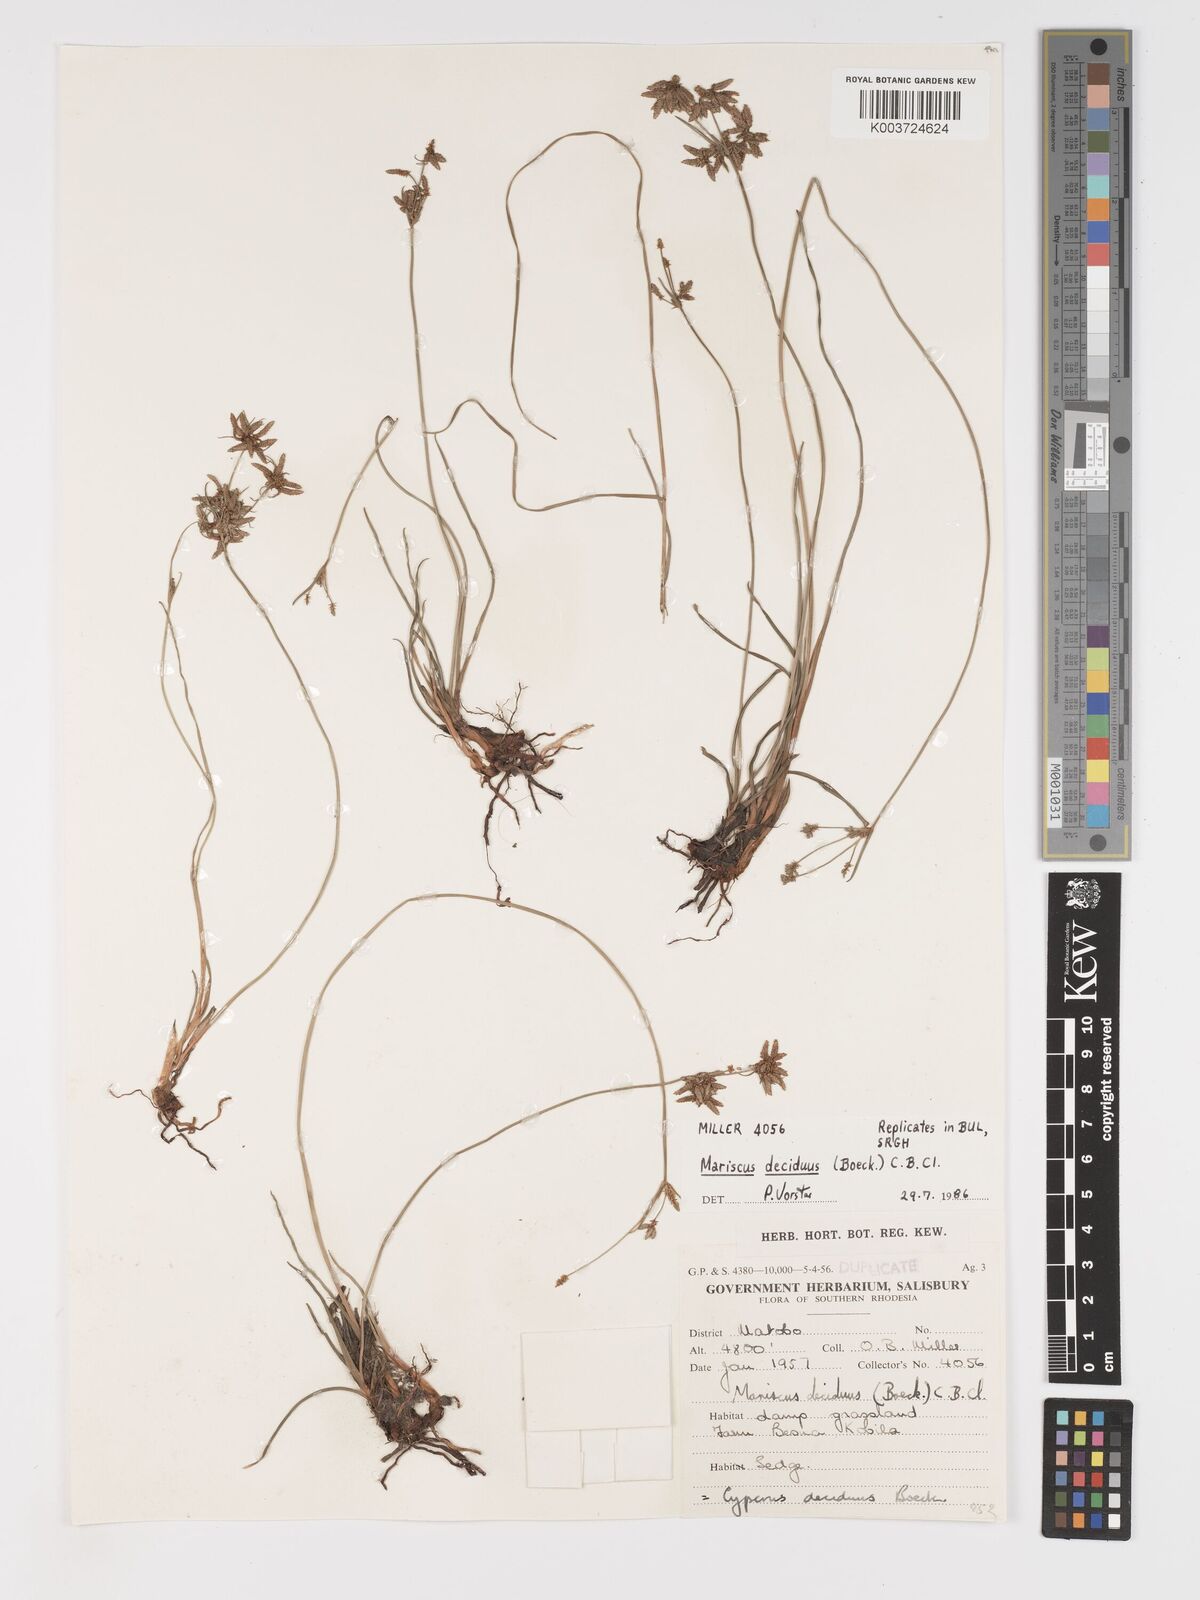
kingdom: Plantae
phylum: Tracheophyta
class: Liliopsida
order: Poales
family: Cyperaceae
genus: Cyperus
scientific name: Cyperus deciduus
